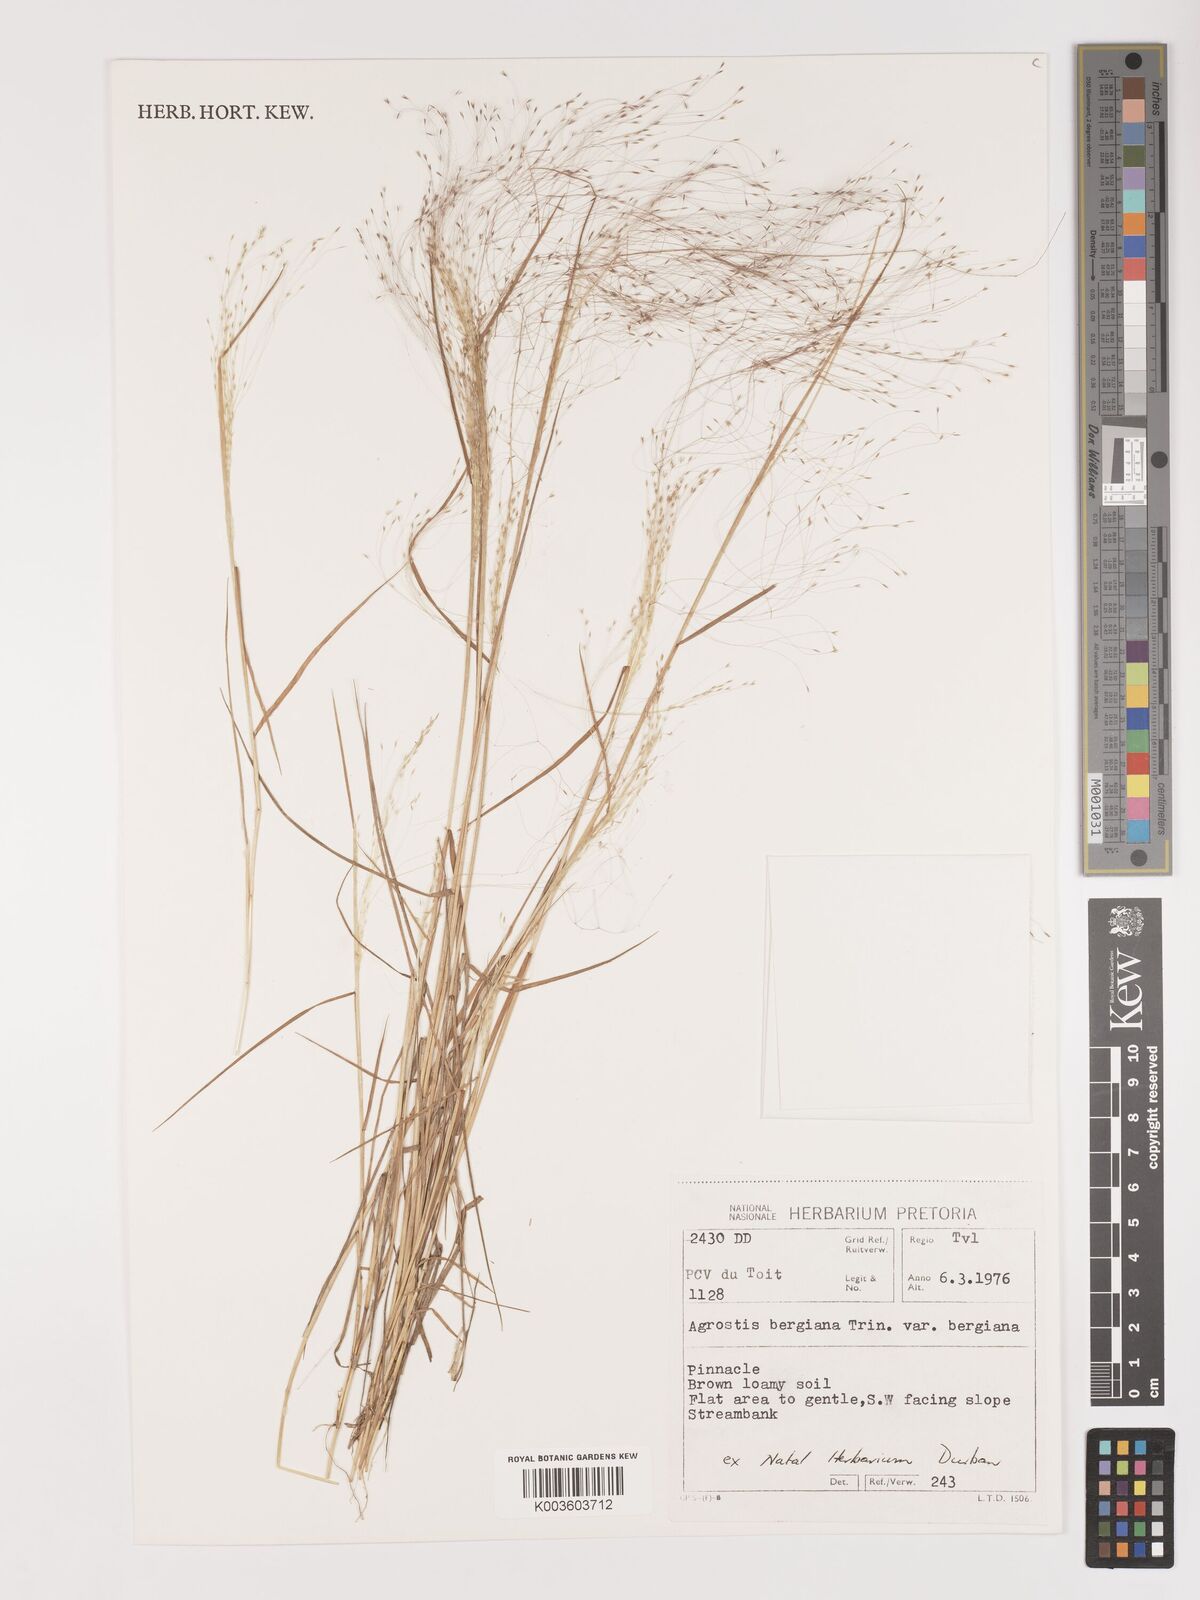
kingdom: Plantae
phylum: Tracheophyta
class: Liliopsida
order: Poales
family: Poaceae
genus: Agrostis
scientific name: Agrostis bergiana
